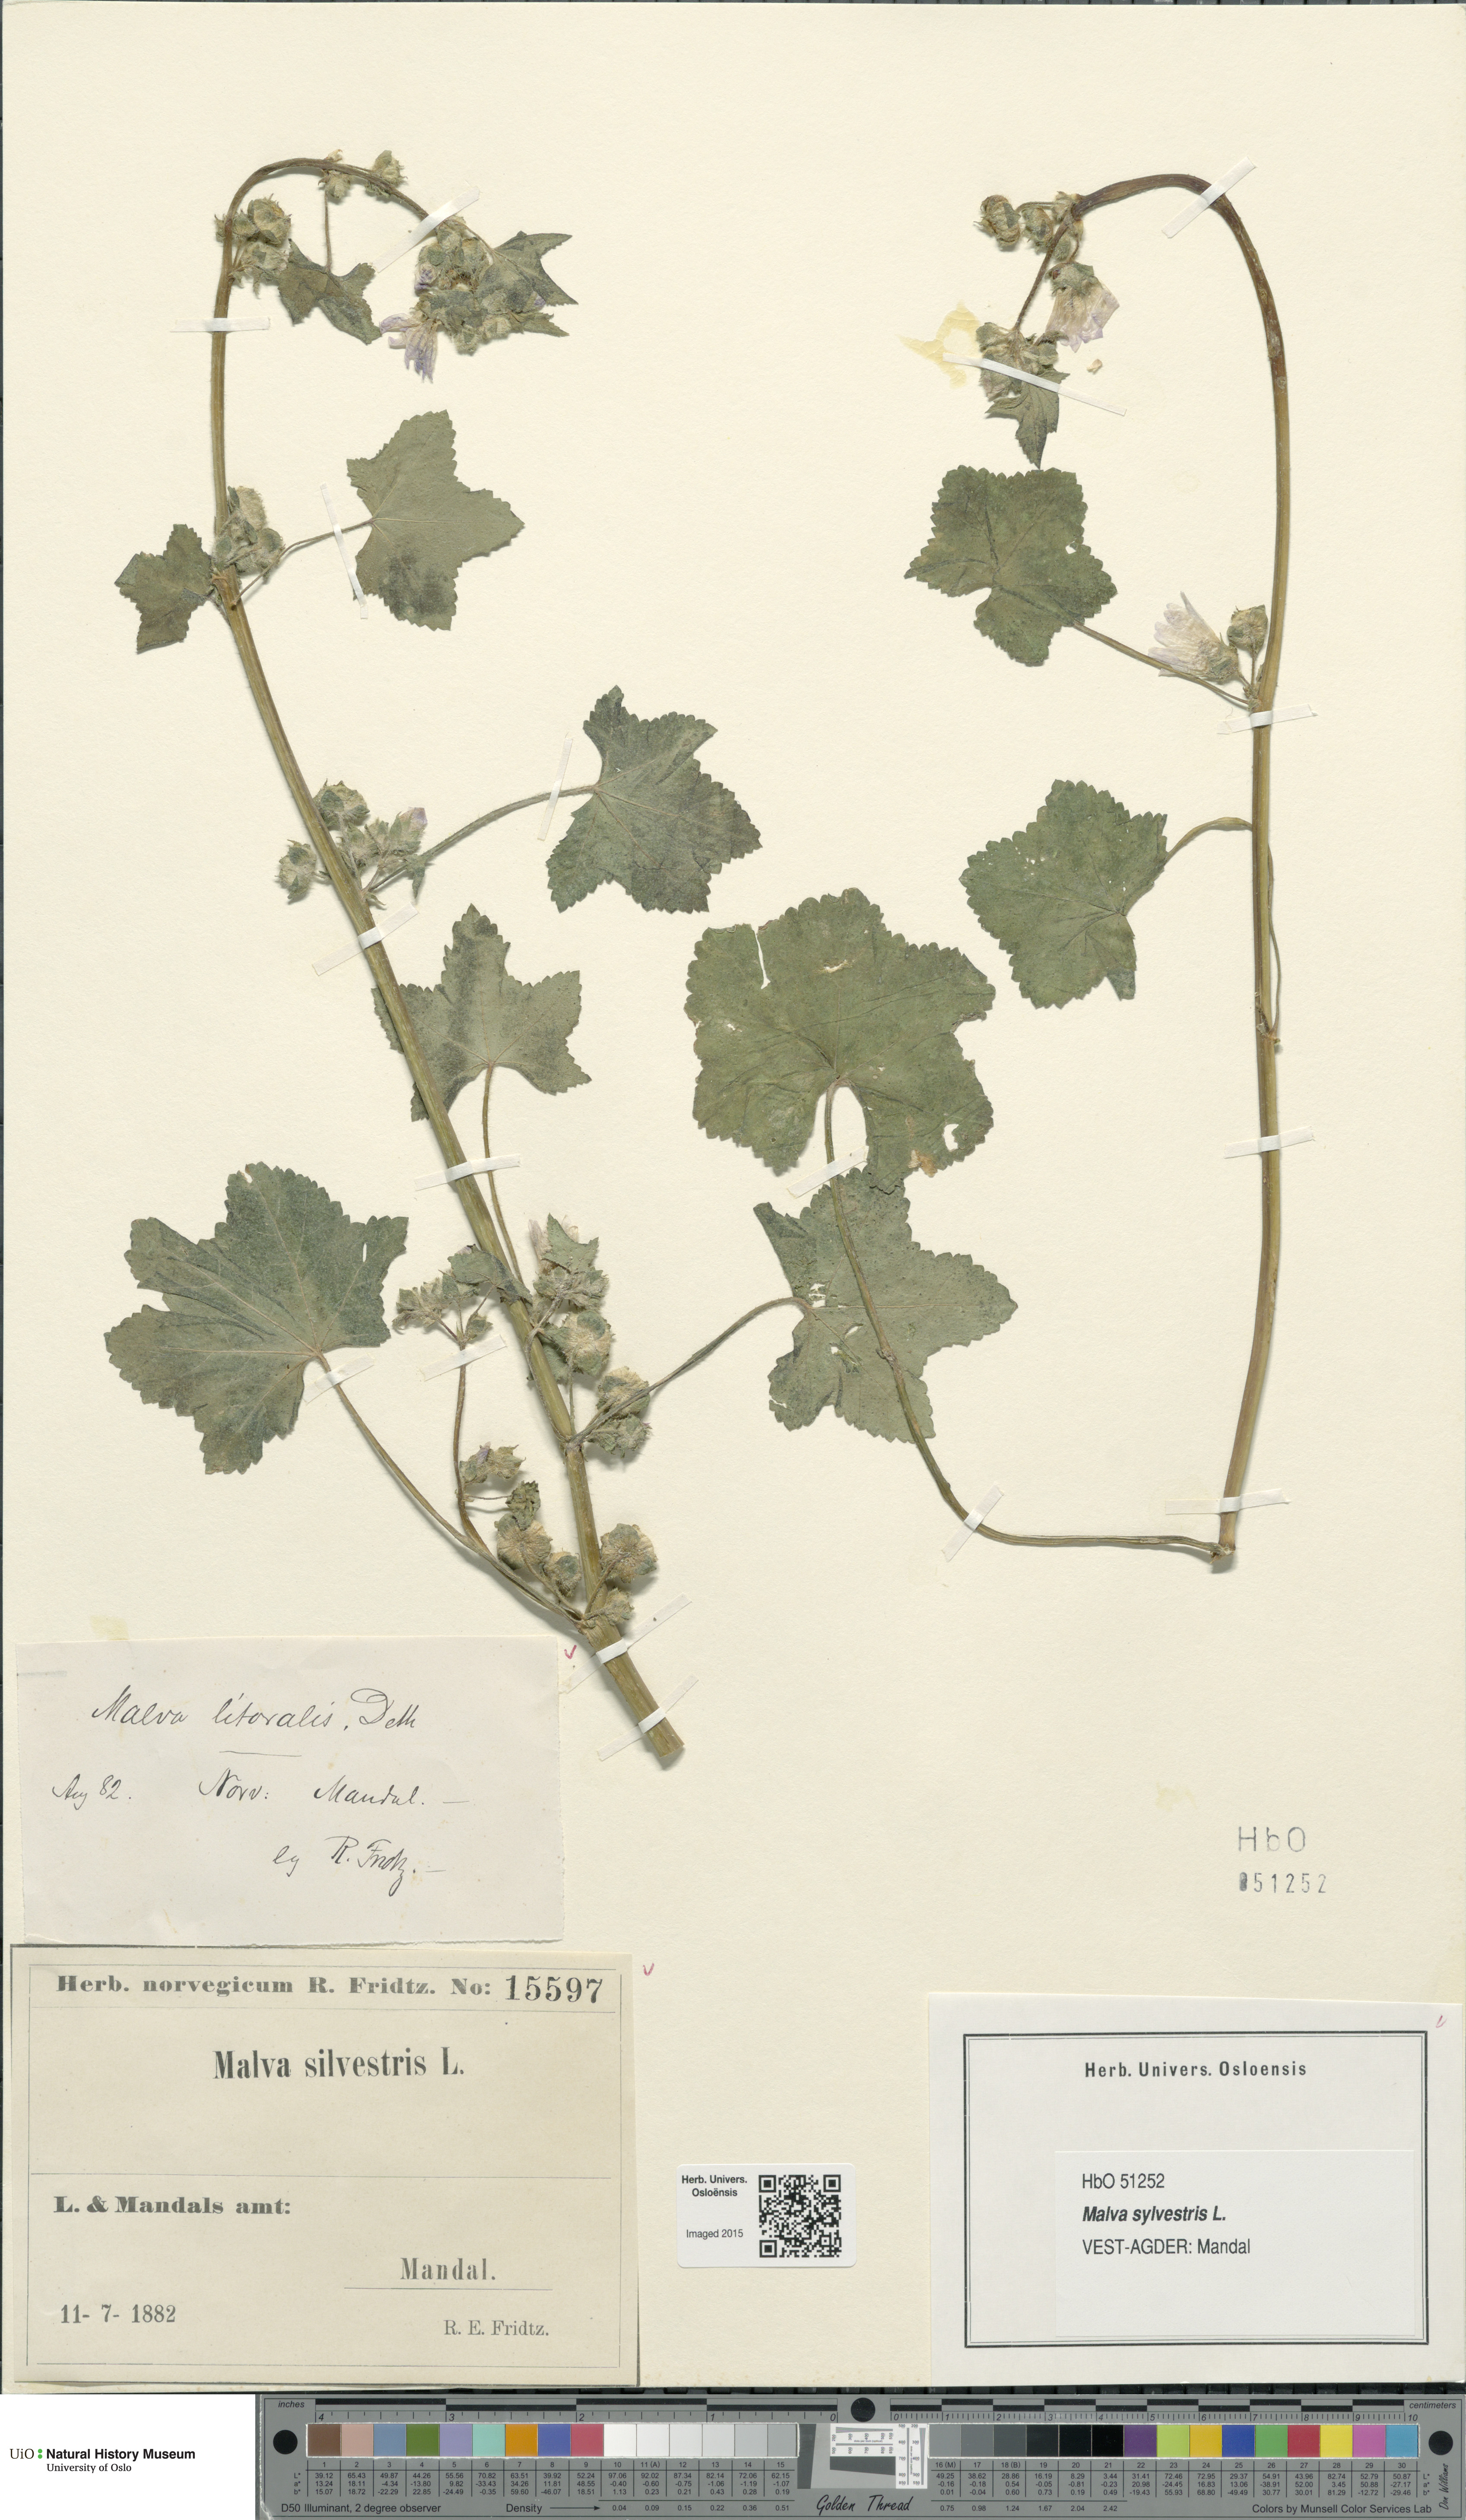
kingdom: Plantae
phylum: Tracheophyta
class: Magnoliopsida
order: Malvales
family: Malvaceae
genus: Malva
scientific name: Malva sylvestris
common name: Common mallow
